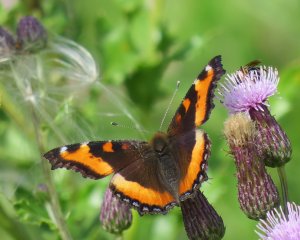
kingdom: Animalia
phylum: Arthropoda
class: Insecta
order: Lepidoptera
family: Nymphalidae
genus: Aglais
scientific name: Aglais milberti
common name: Milbert's Tortoiseshell
